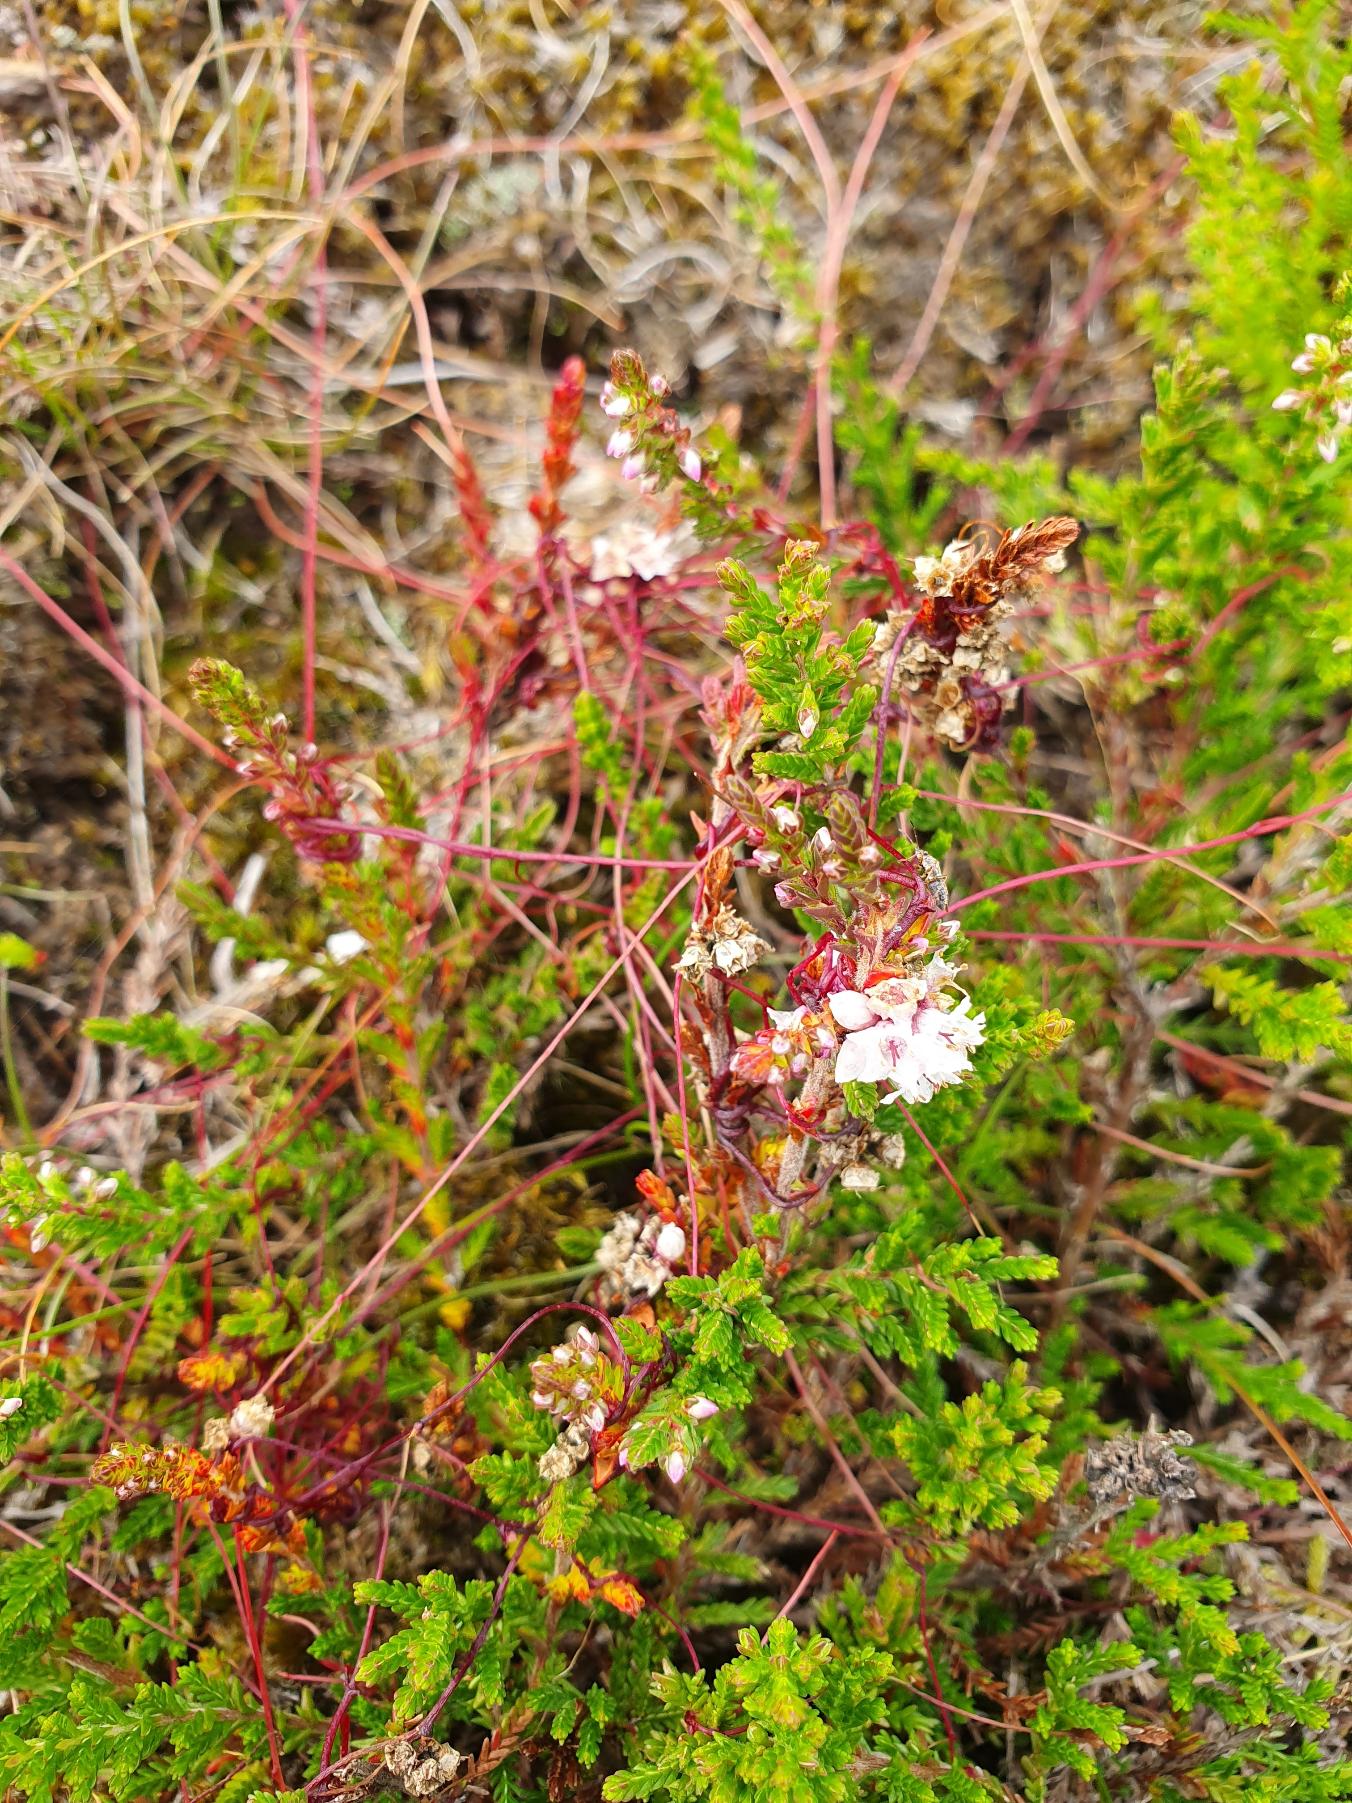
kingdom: Plantae
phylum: Tracheophyta
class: Magnoliopsida
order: Solanales
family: Convolvulaceae
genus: Cuscuta
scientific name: Cuscuta epithymum
